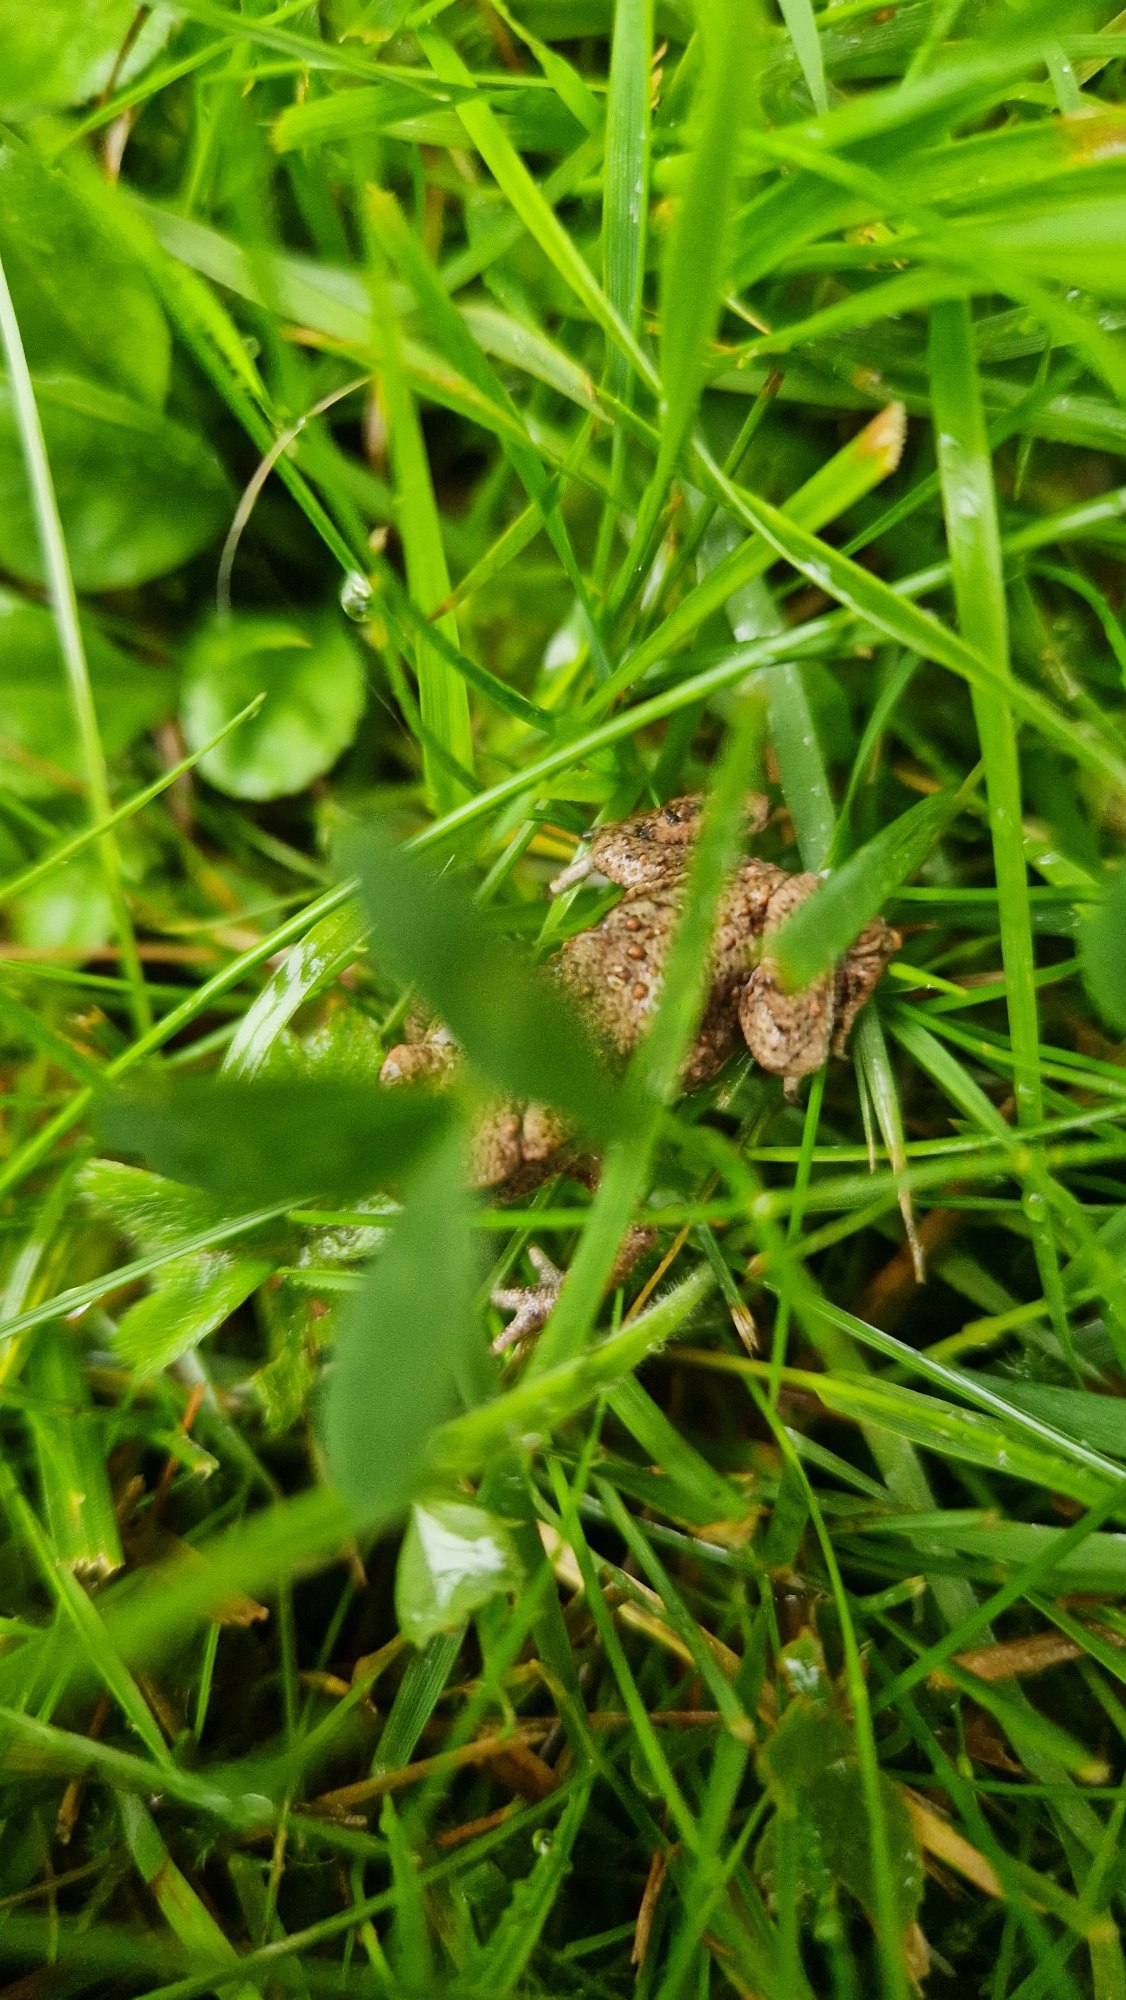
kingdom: Animalia
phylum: Chordata
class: Amphibia
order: Anura
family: Bufonidae
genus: Bufo
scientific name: Bufo bufo
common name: Skrubtudse
